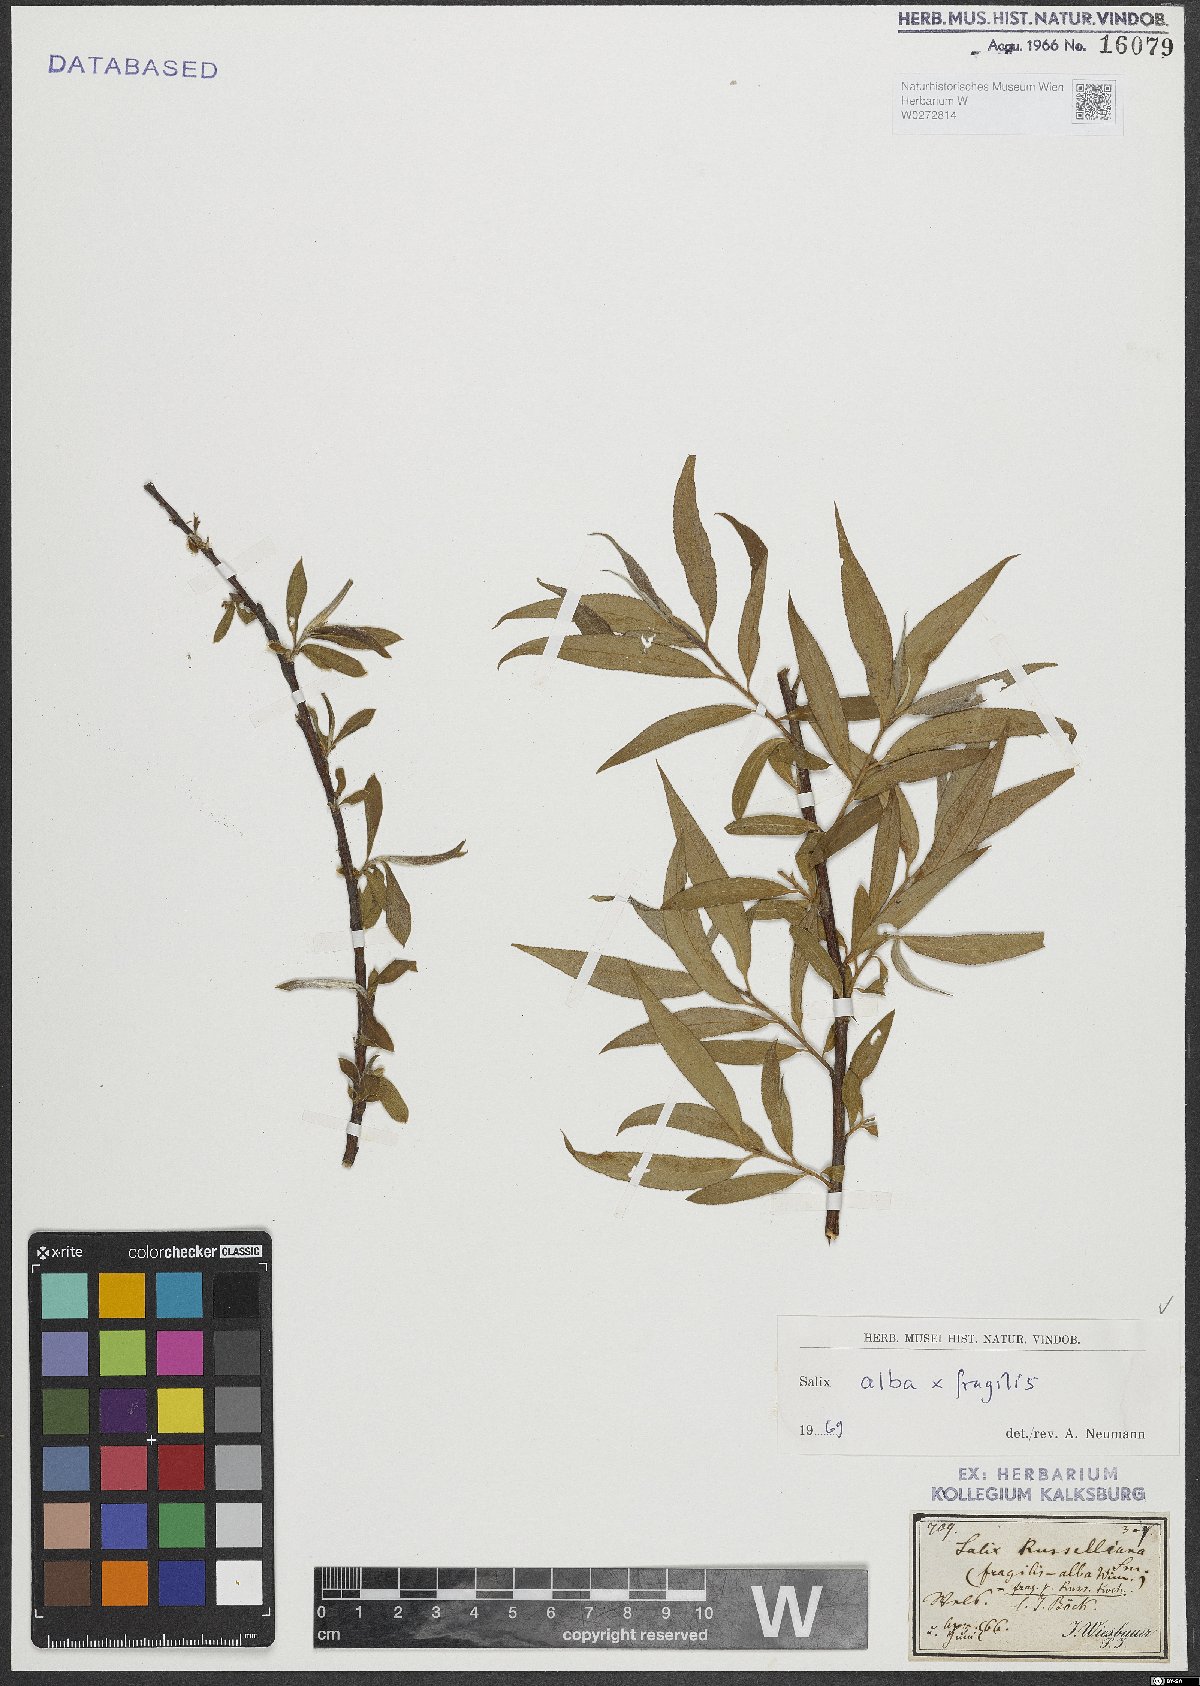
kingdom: Plantae
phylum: Tracheophyta
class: Magnoliopsida
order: Malpighiales
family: Salicaceae
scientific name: Salicaceae
